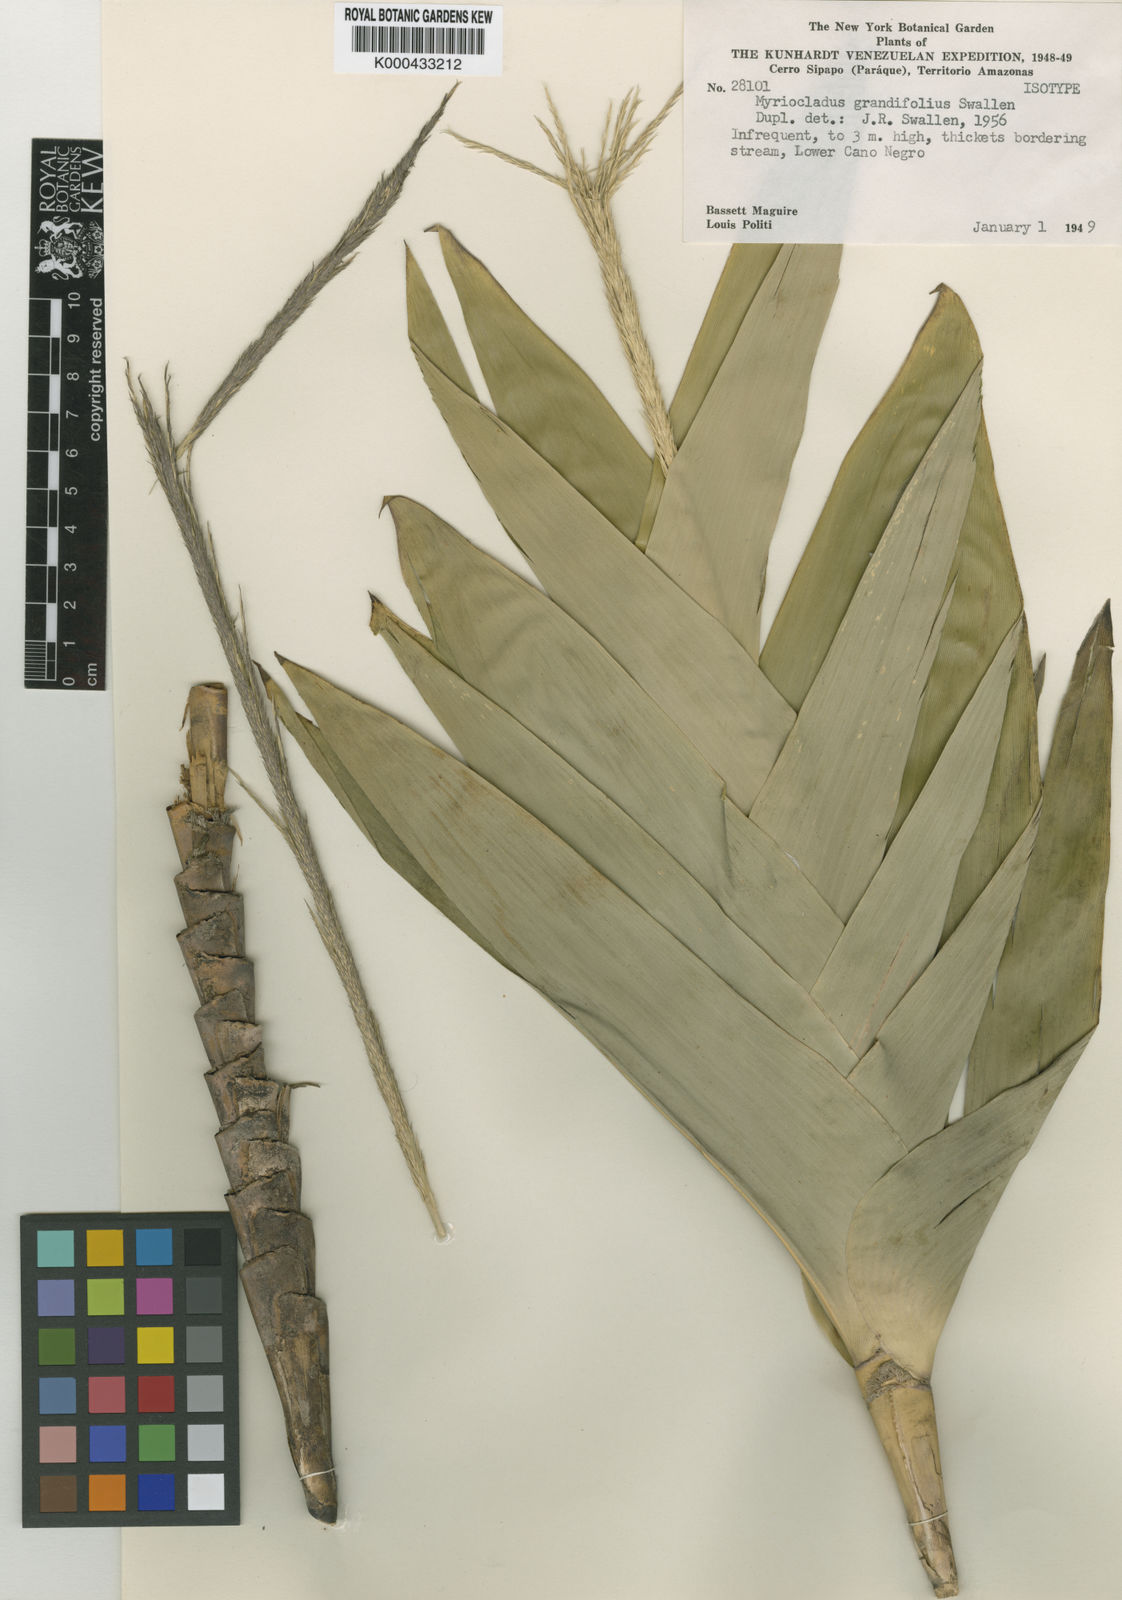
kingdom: Plantae
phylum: Tracheophyta
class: Liliopsida
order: Poales
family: Poaceae
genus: Myriocladus
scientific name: Myriocladus grandifolius
